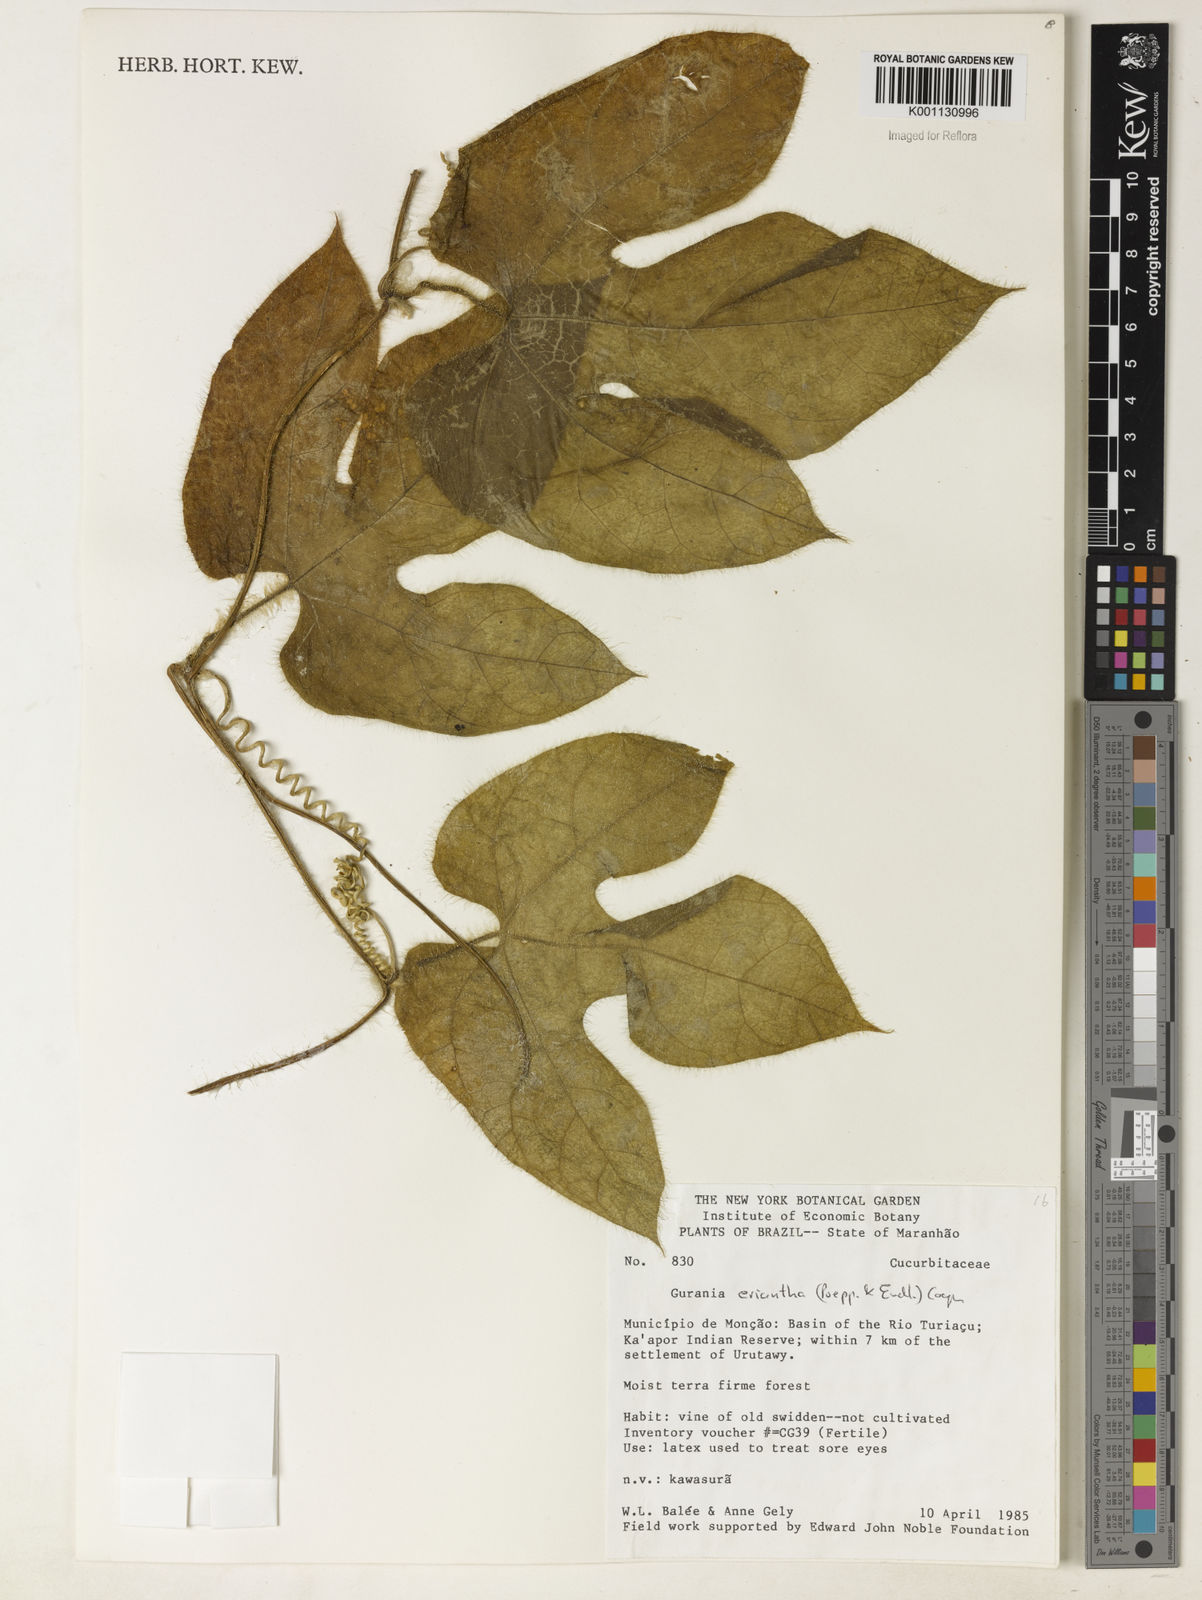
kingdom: Plantae
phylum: Tracheophyta
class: Magnoliopsida
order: Cucurbitales
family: Cucurbitaceae
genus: Gurania
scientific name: Gurania eriantha
